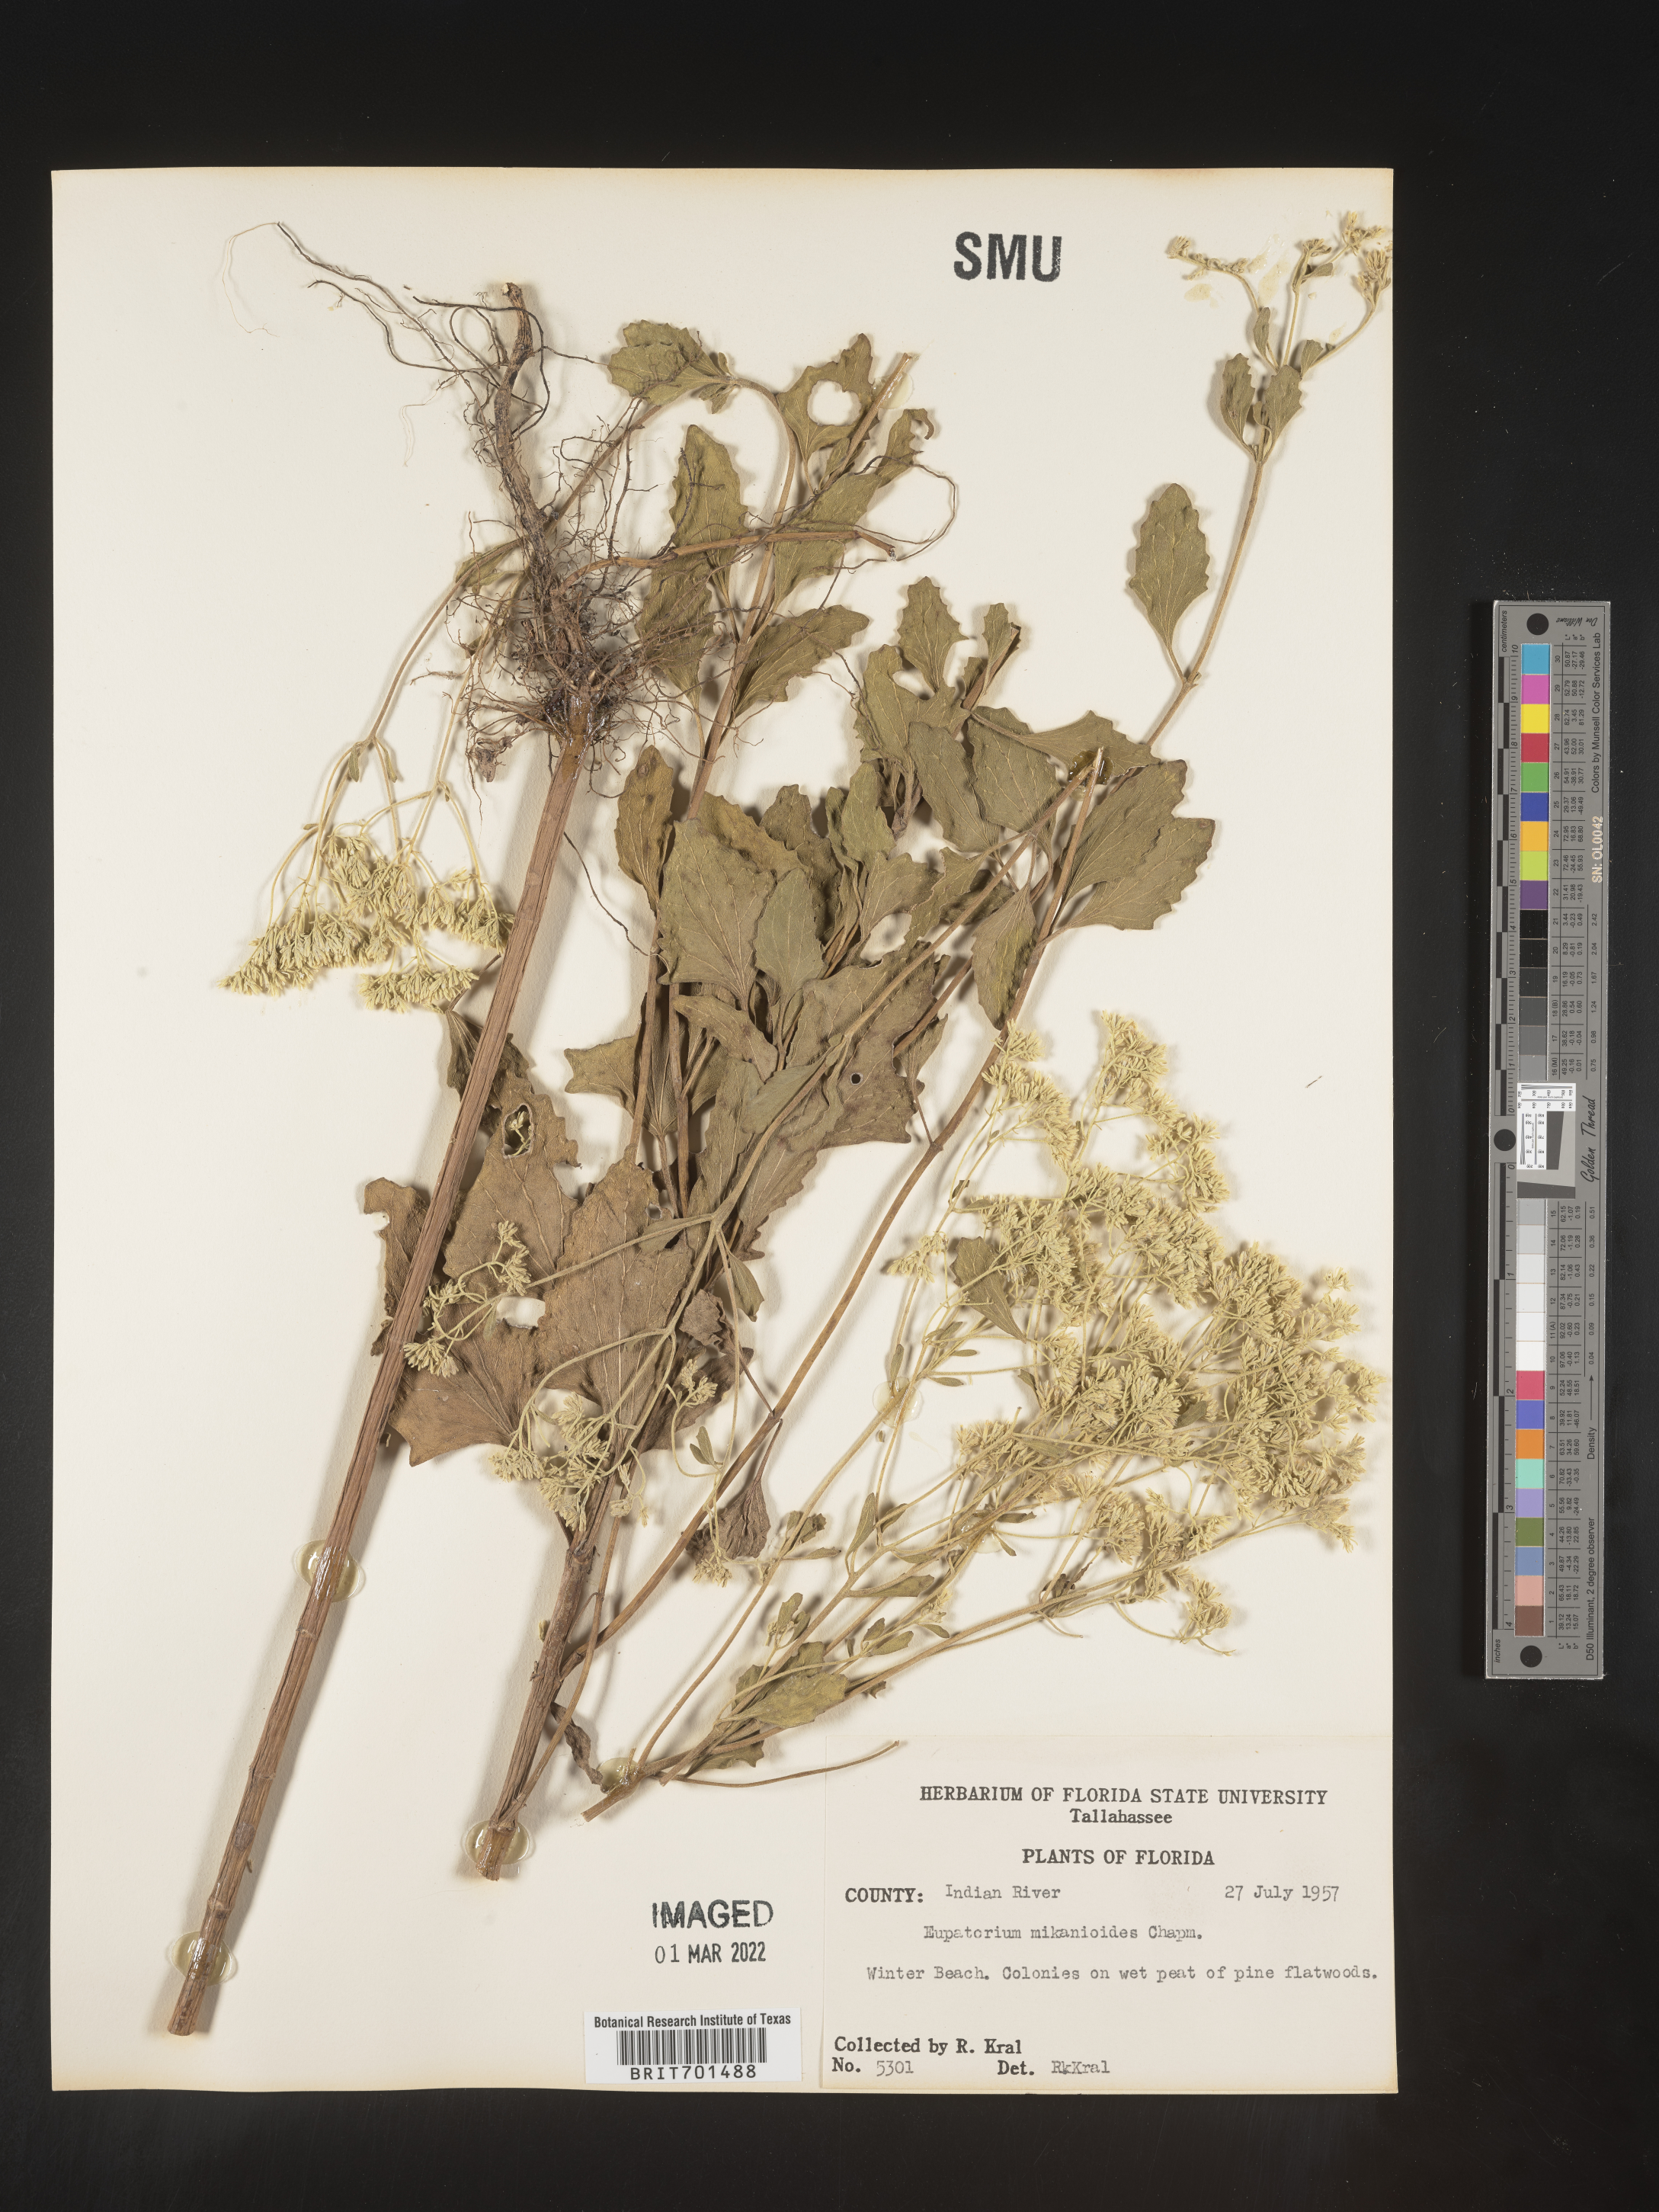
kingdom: Plantae
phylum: Tracheophyta
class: Magnoliopsida
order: Asterales
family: Asteraceae
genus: Eupatorium
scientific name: Eupatorium
